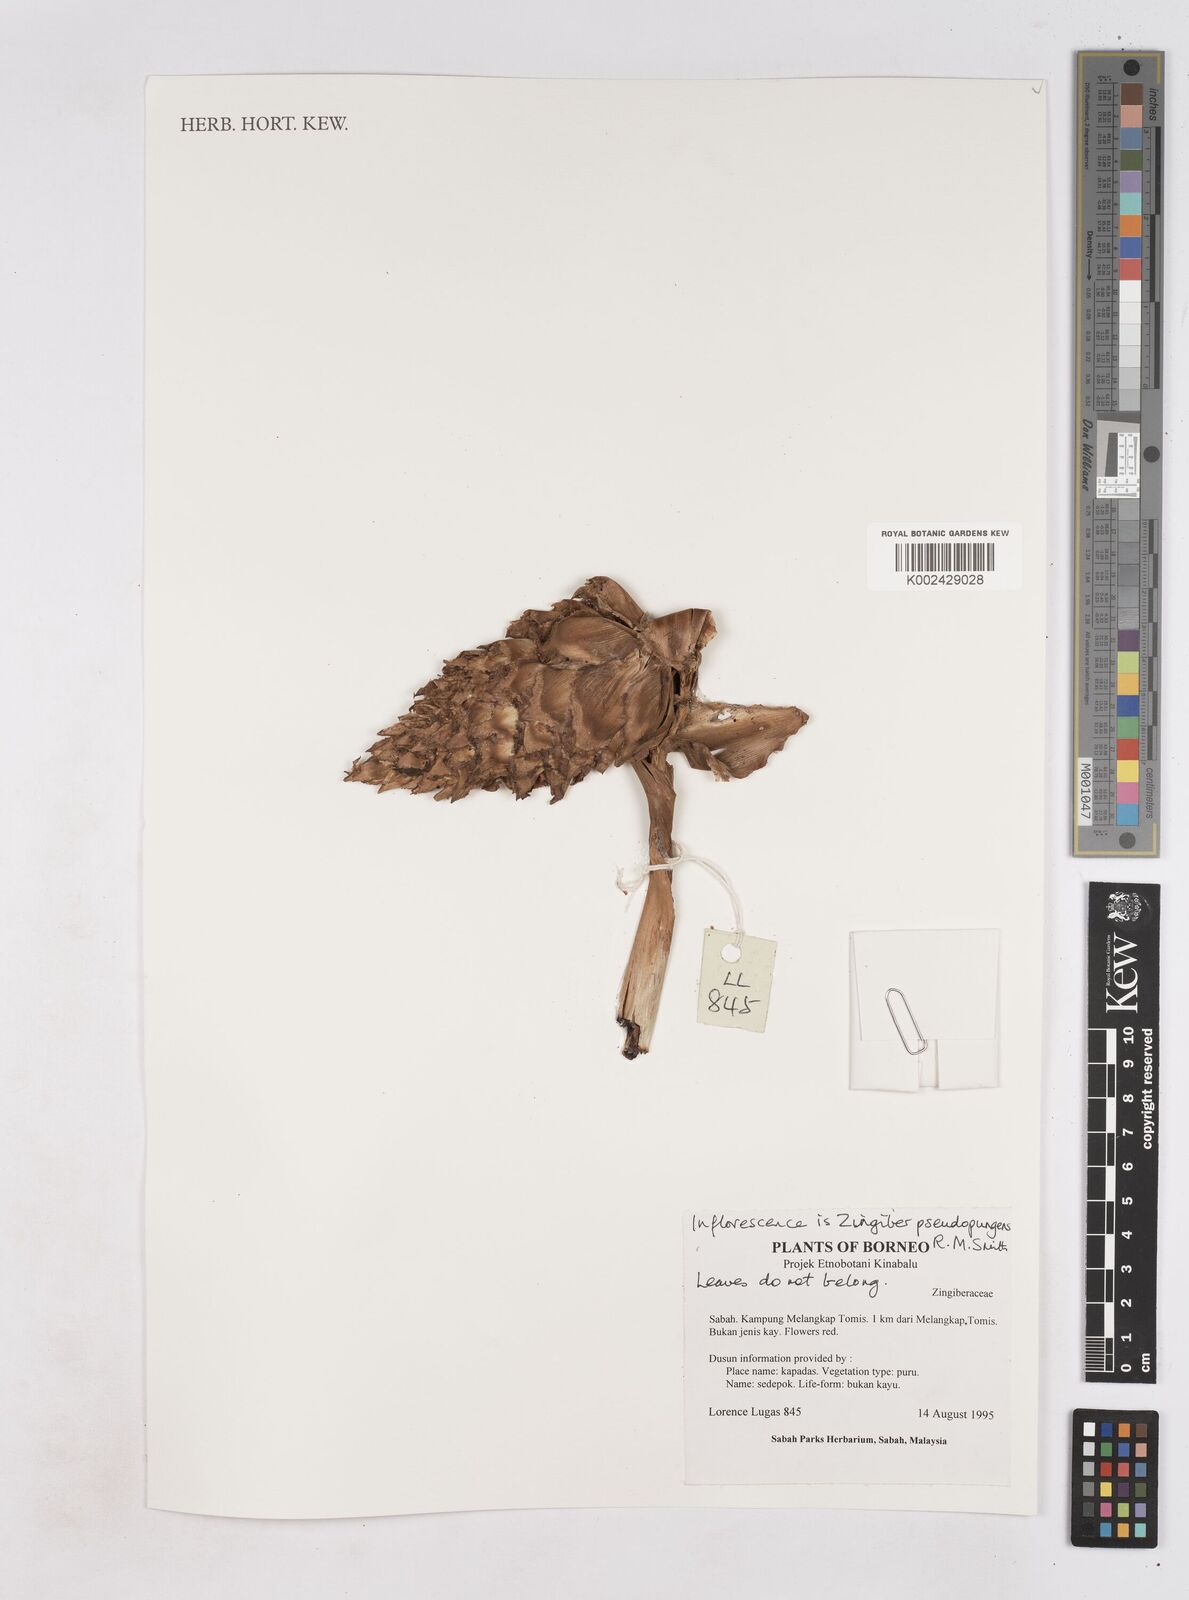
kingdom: Plantae
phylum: Tracheophyta
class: Liliopsida
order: Zingiberales
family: Zingiberaceae
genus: Zingiber
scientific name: Zingiber pseudopungens
